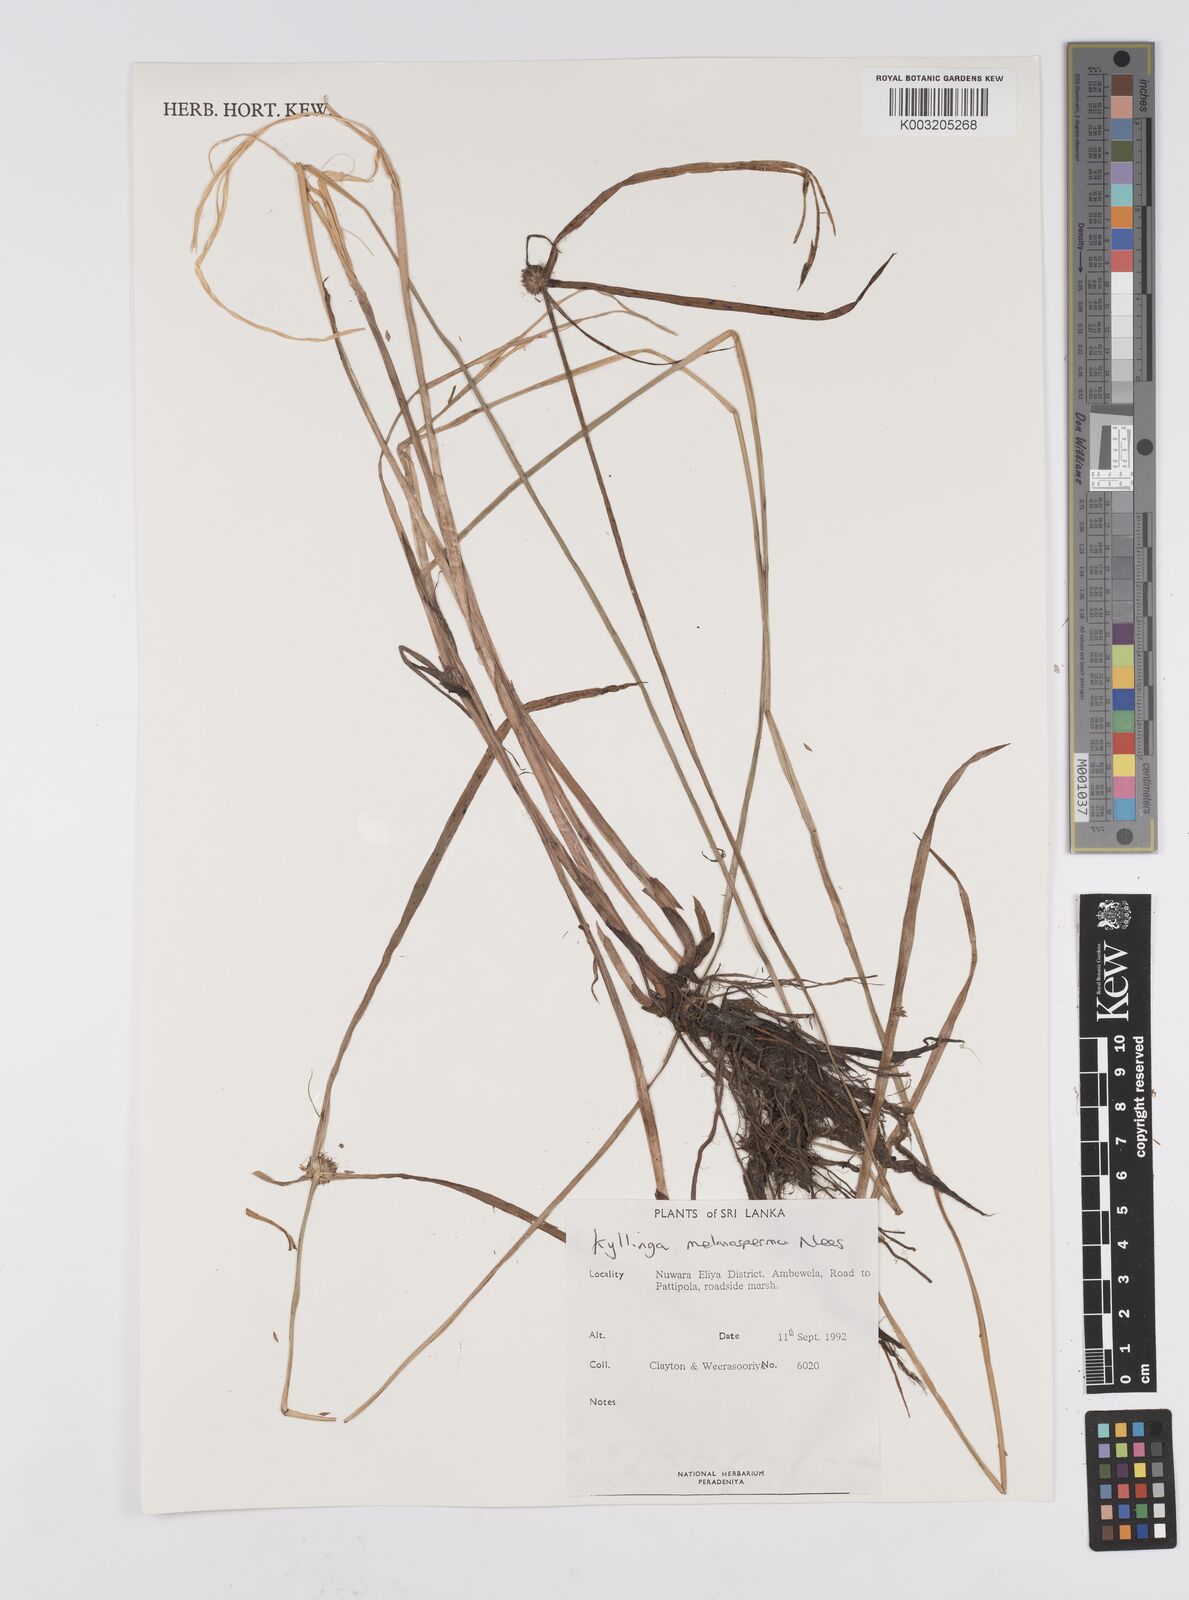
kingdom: Plantae
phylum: Tracheophyta
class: Liliopsida
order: Poales
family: Cyperaceae
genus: Cyperus
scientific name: Cyperus melanospermus
